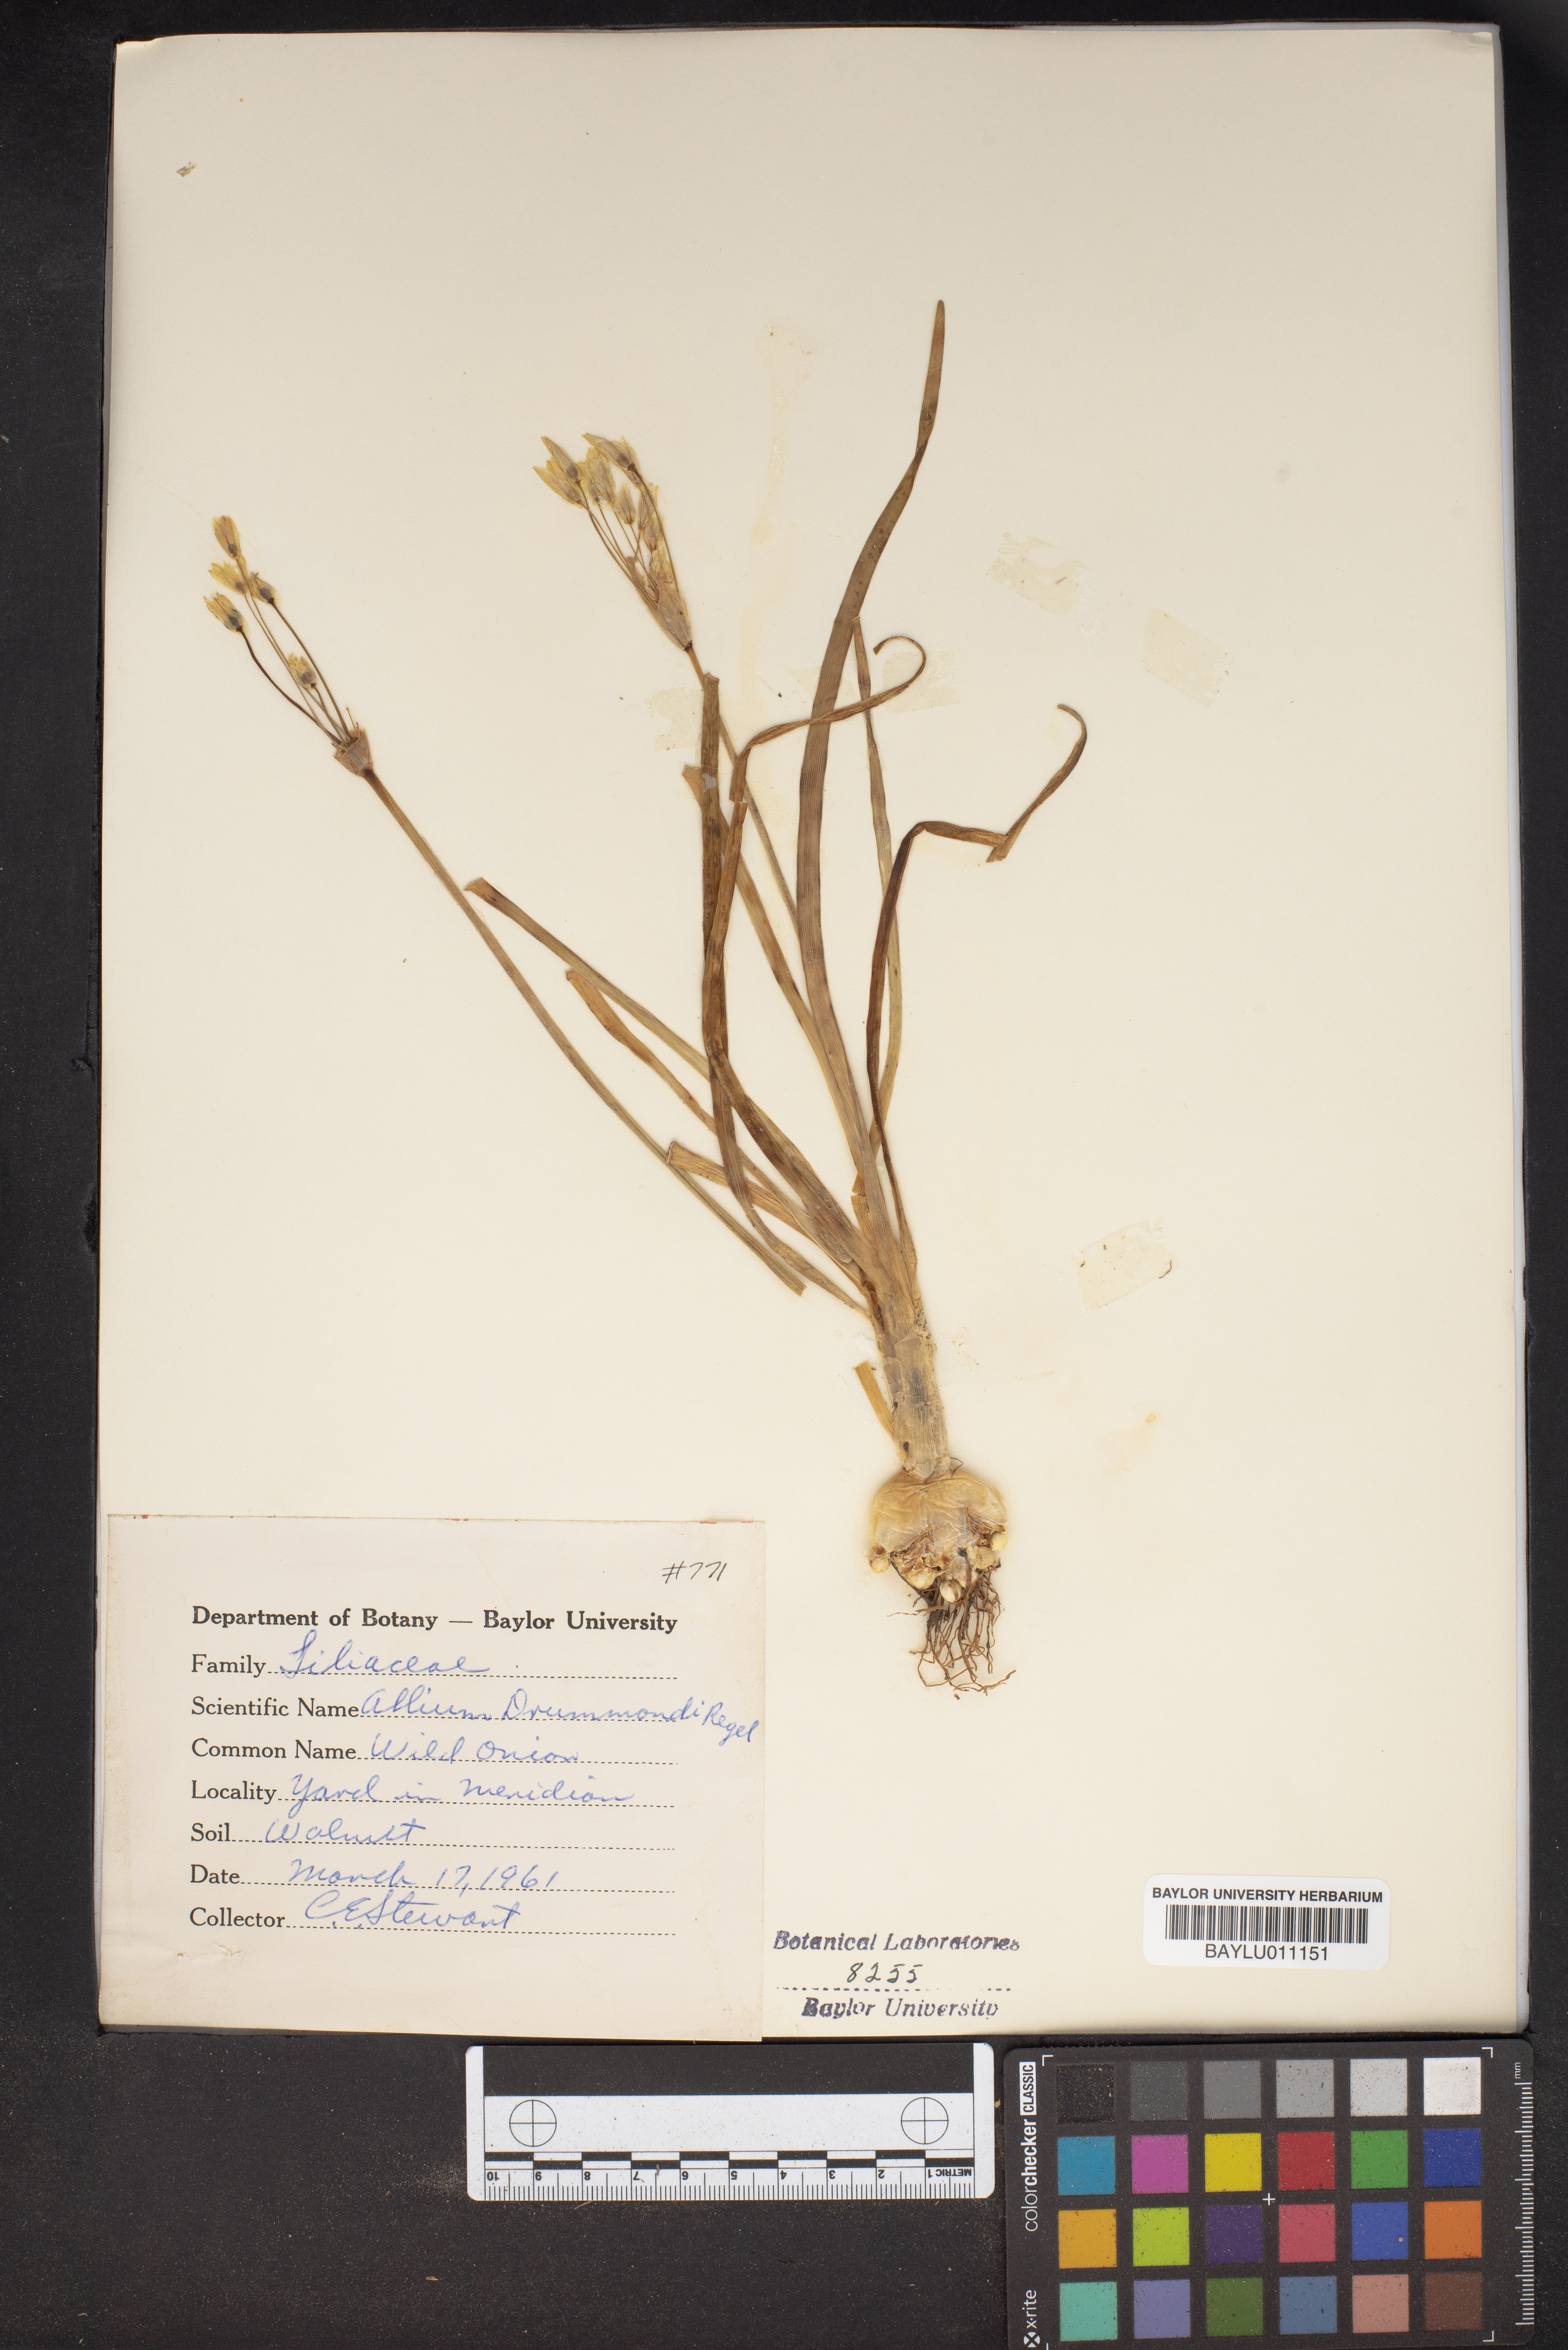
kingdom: Plantae
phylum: Tracheophyta
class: Liliopsida
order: Asparagales
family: Amaryllidaceae
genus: Allium
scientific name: Allium drummondii
